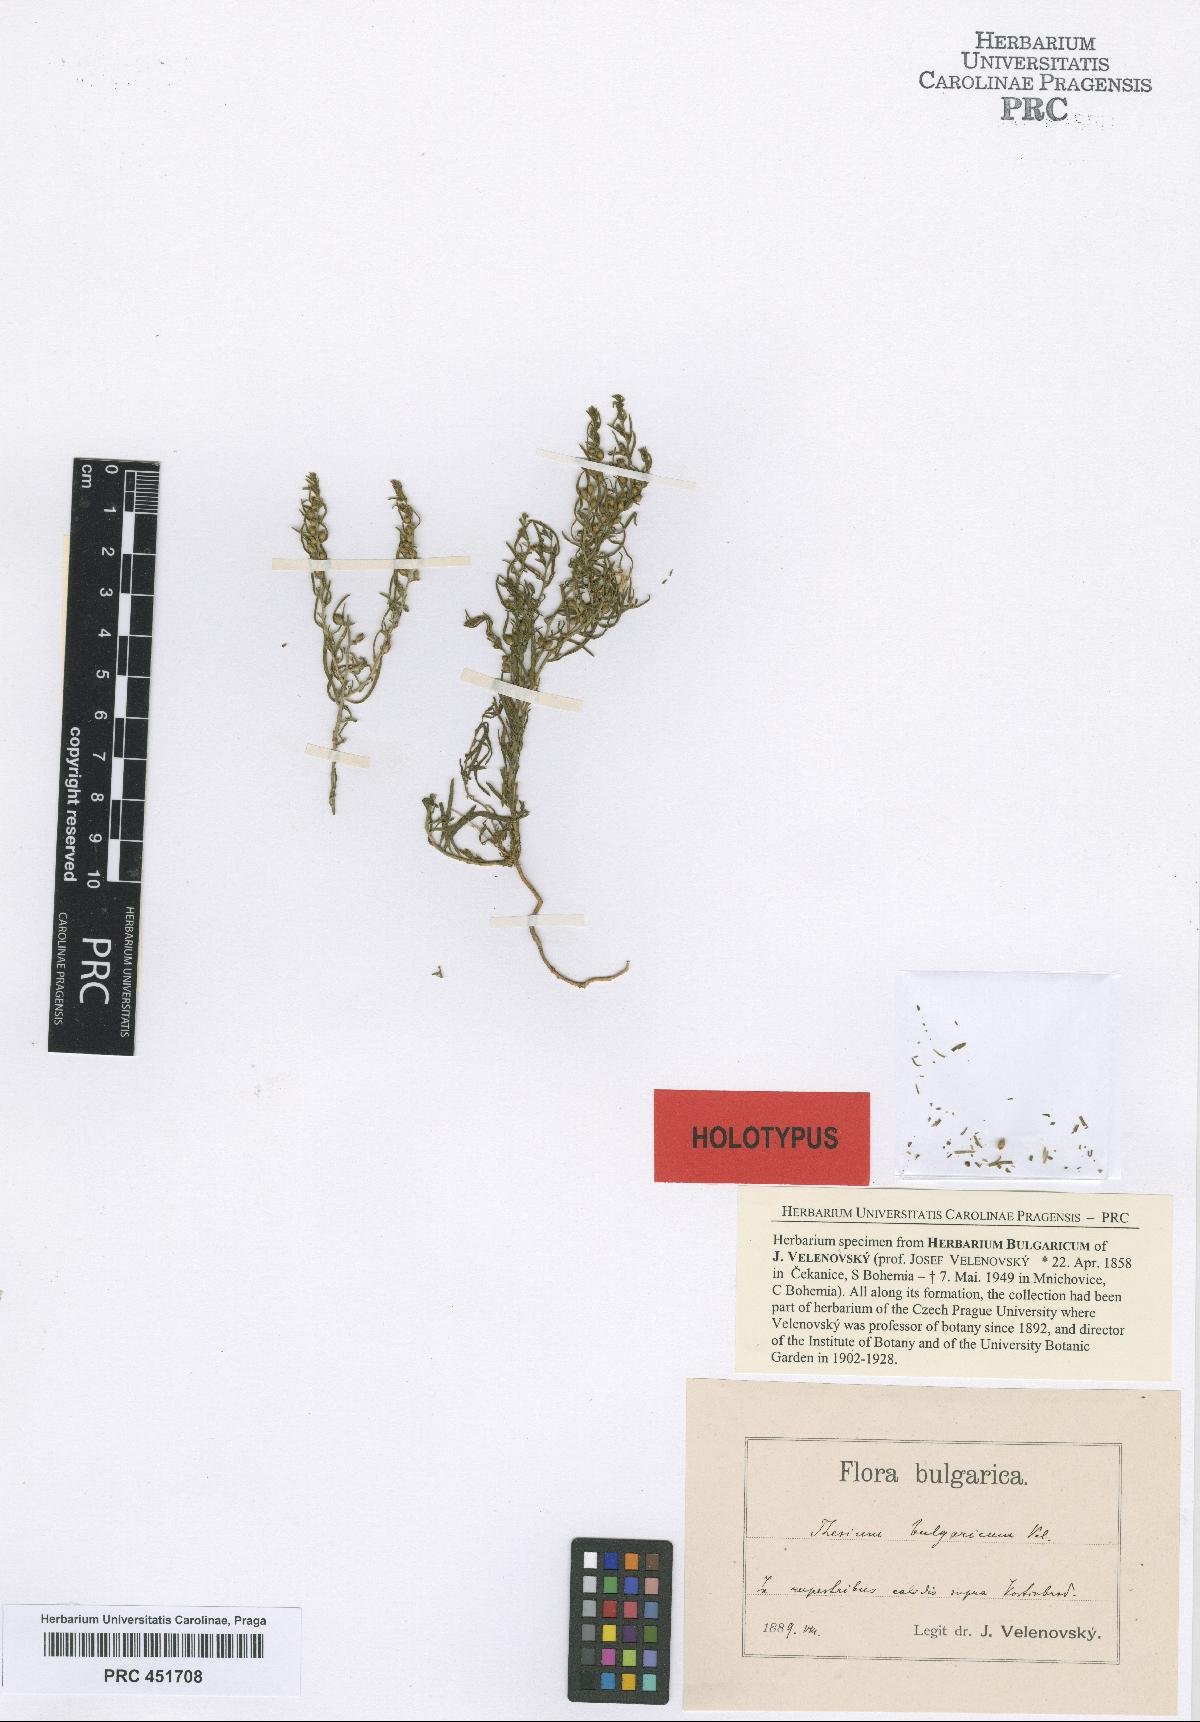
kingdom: Plantae
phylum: Tracheophyta
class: Magnoliopsida
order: Santalales
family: Thesiaceae
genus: Thesium
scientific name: Thesium ramosum
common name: Field thesium
